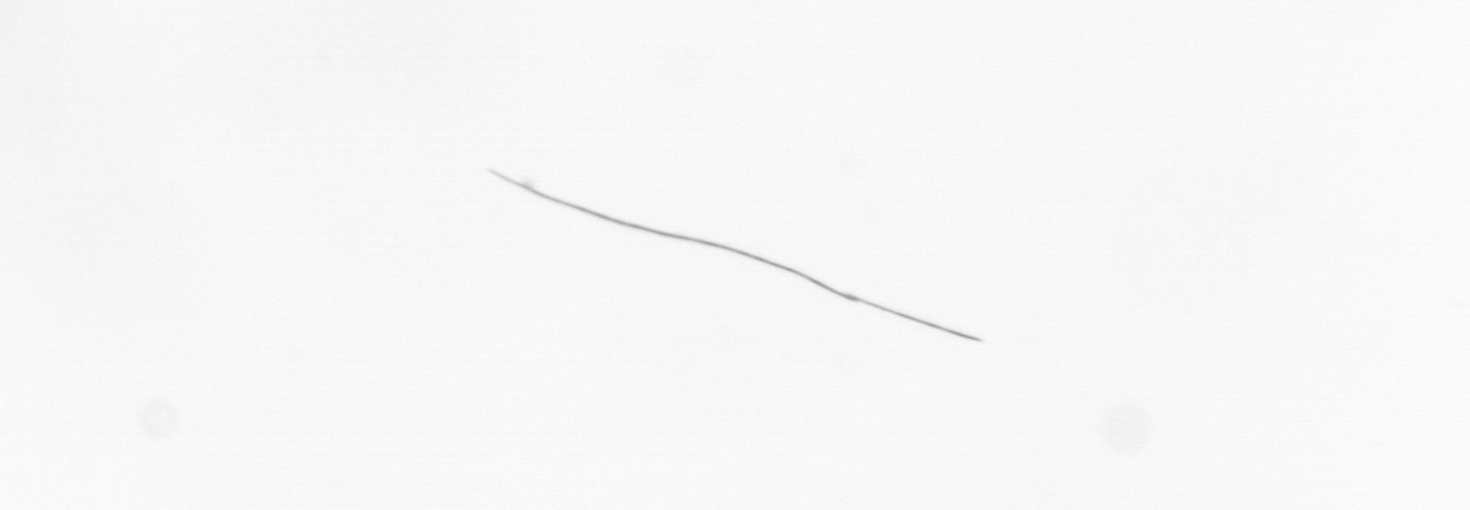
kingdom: Chromista
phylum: Ochrophyta
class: Bacillariophyceae
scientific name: Bacillariophyceae
